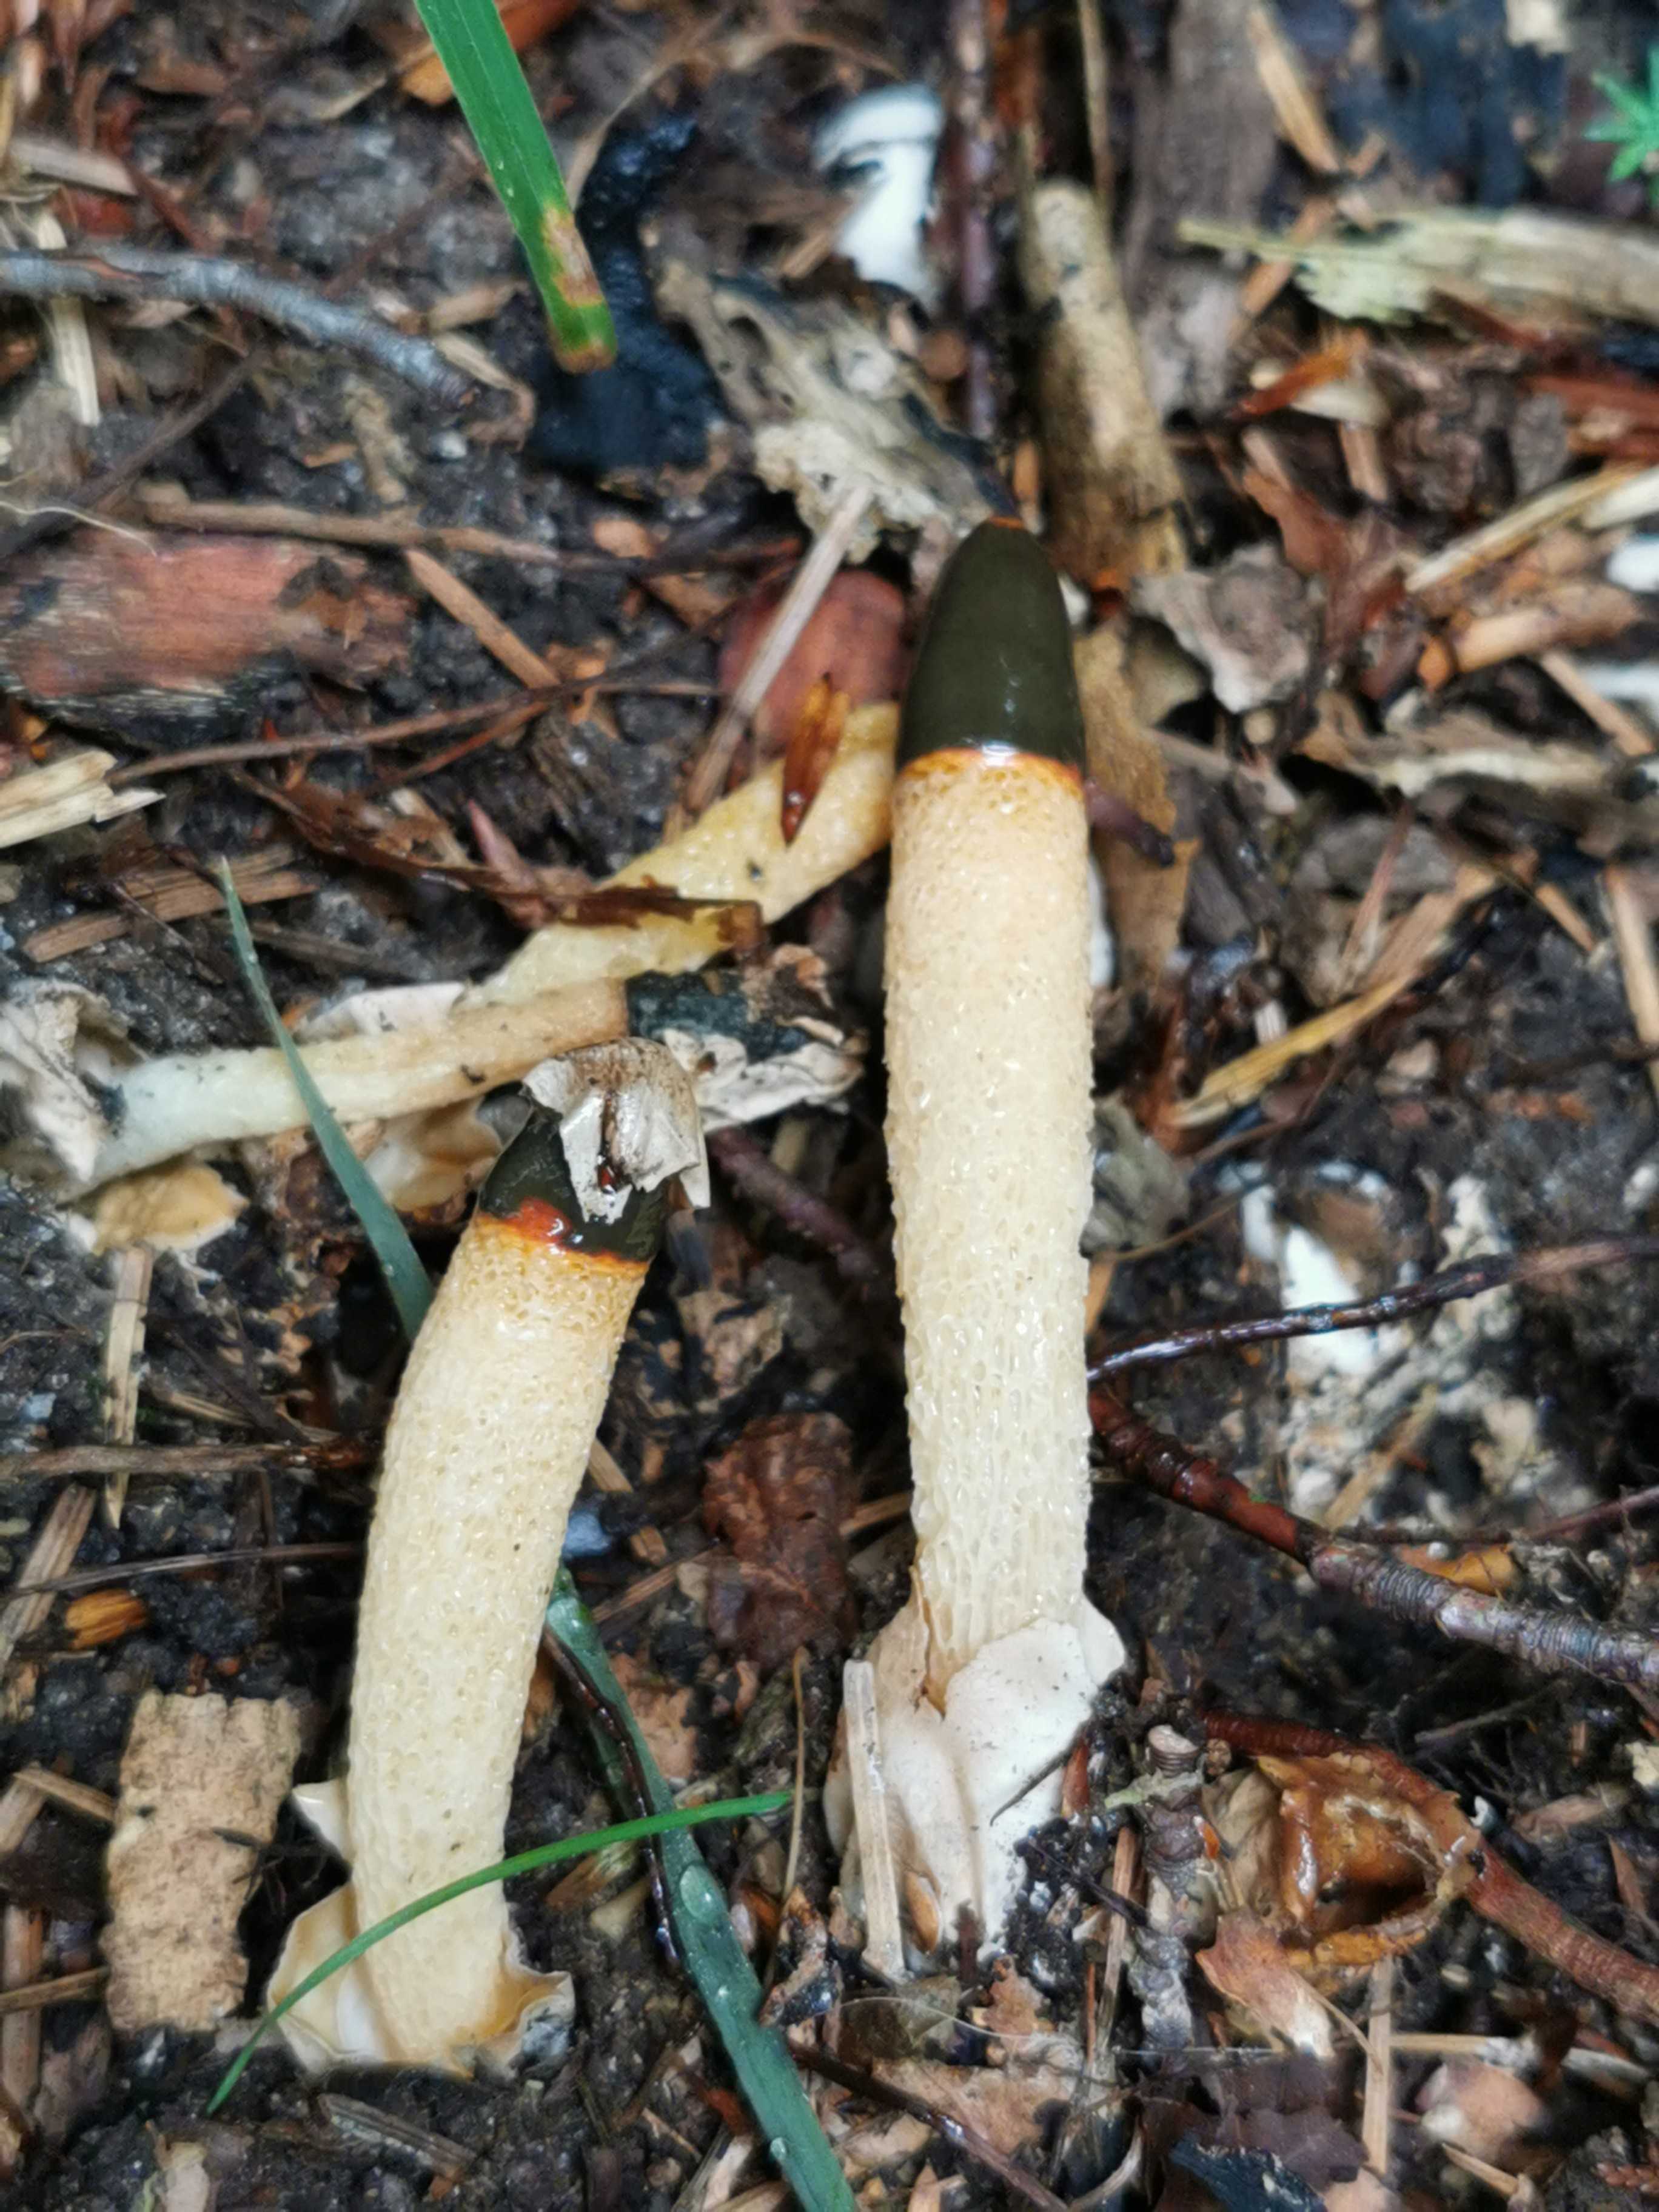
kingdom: Fungi
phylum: Basidiomycota
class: Agaricomycetes
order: Phallales
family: Phallaceae
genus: Mutinus
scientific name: Mutinus caninus
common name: hunde-stinksvamp
